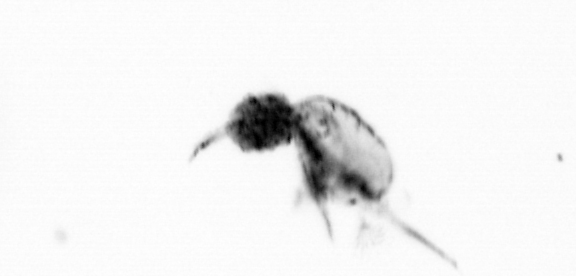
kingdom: Animalia
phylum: Arthropoda
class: Copepoda
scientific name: Copepoda
